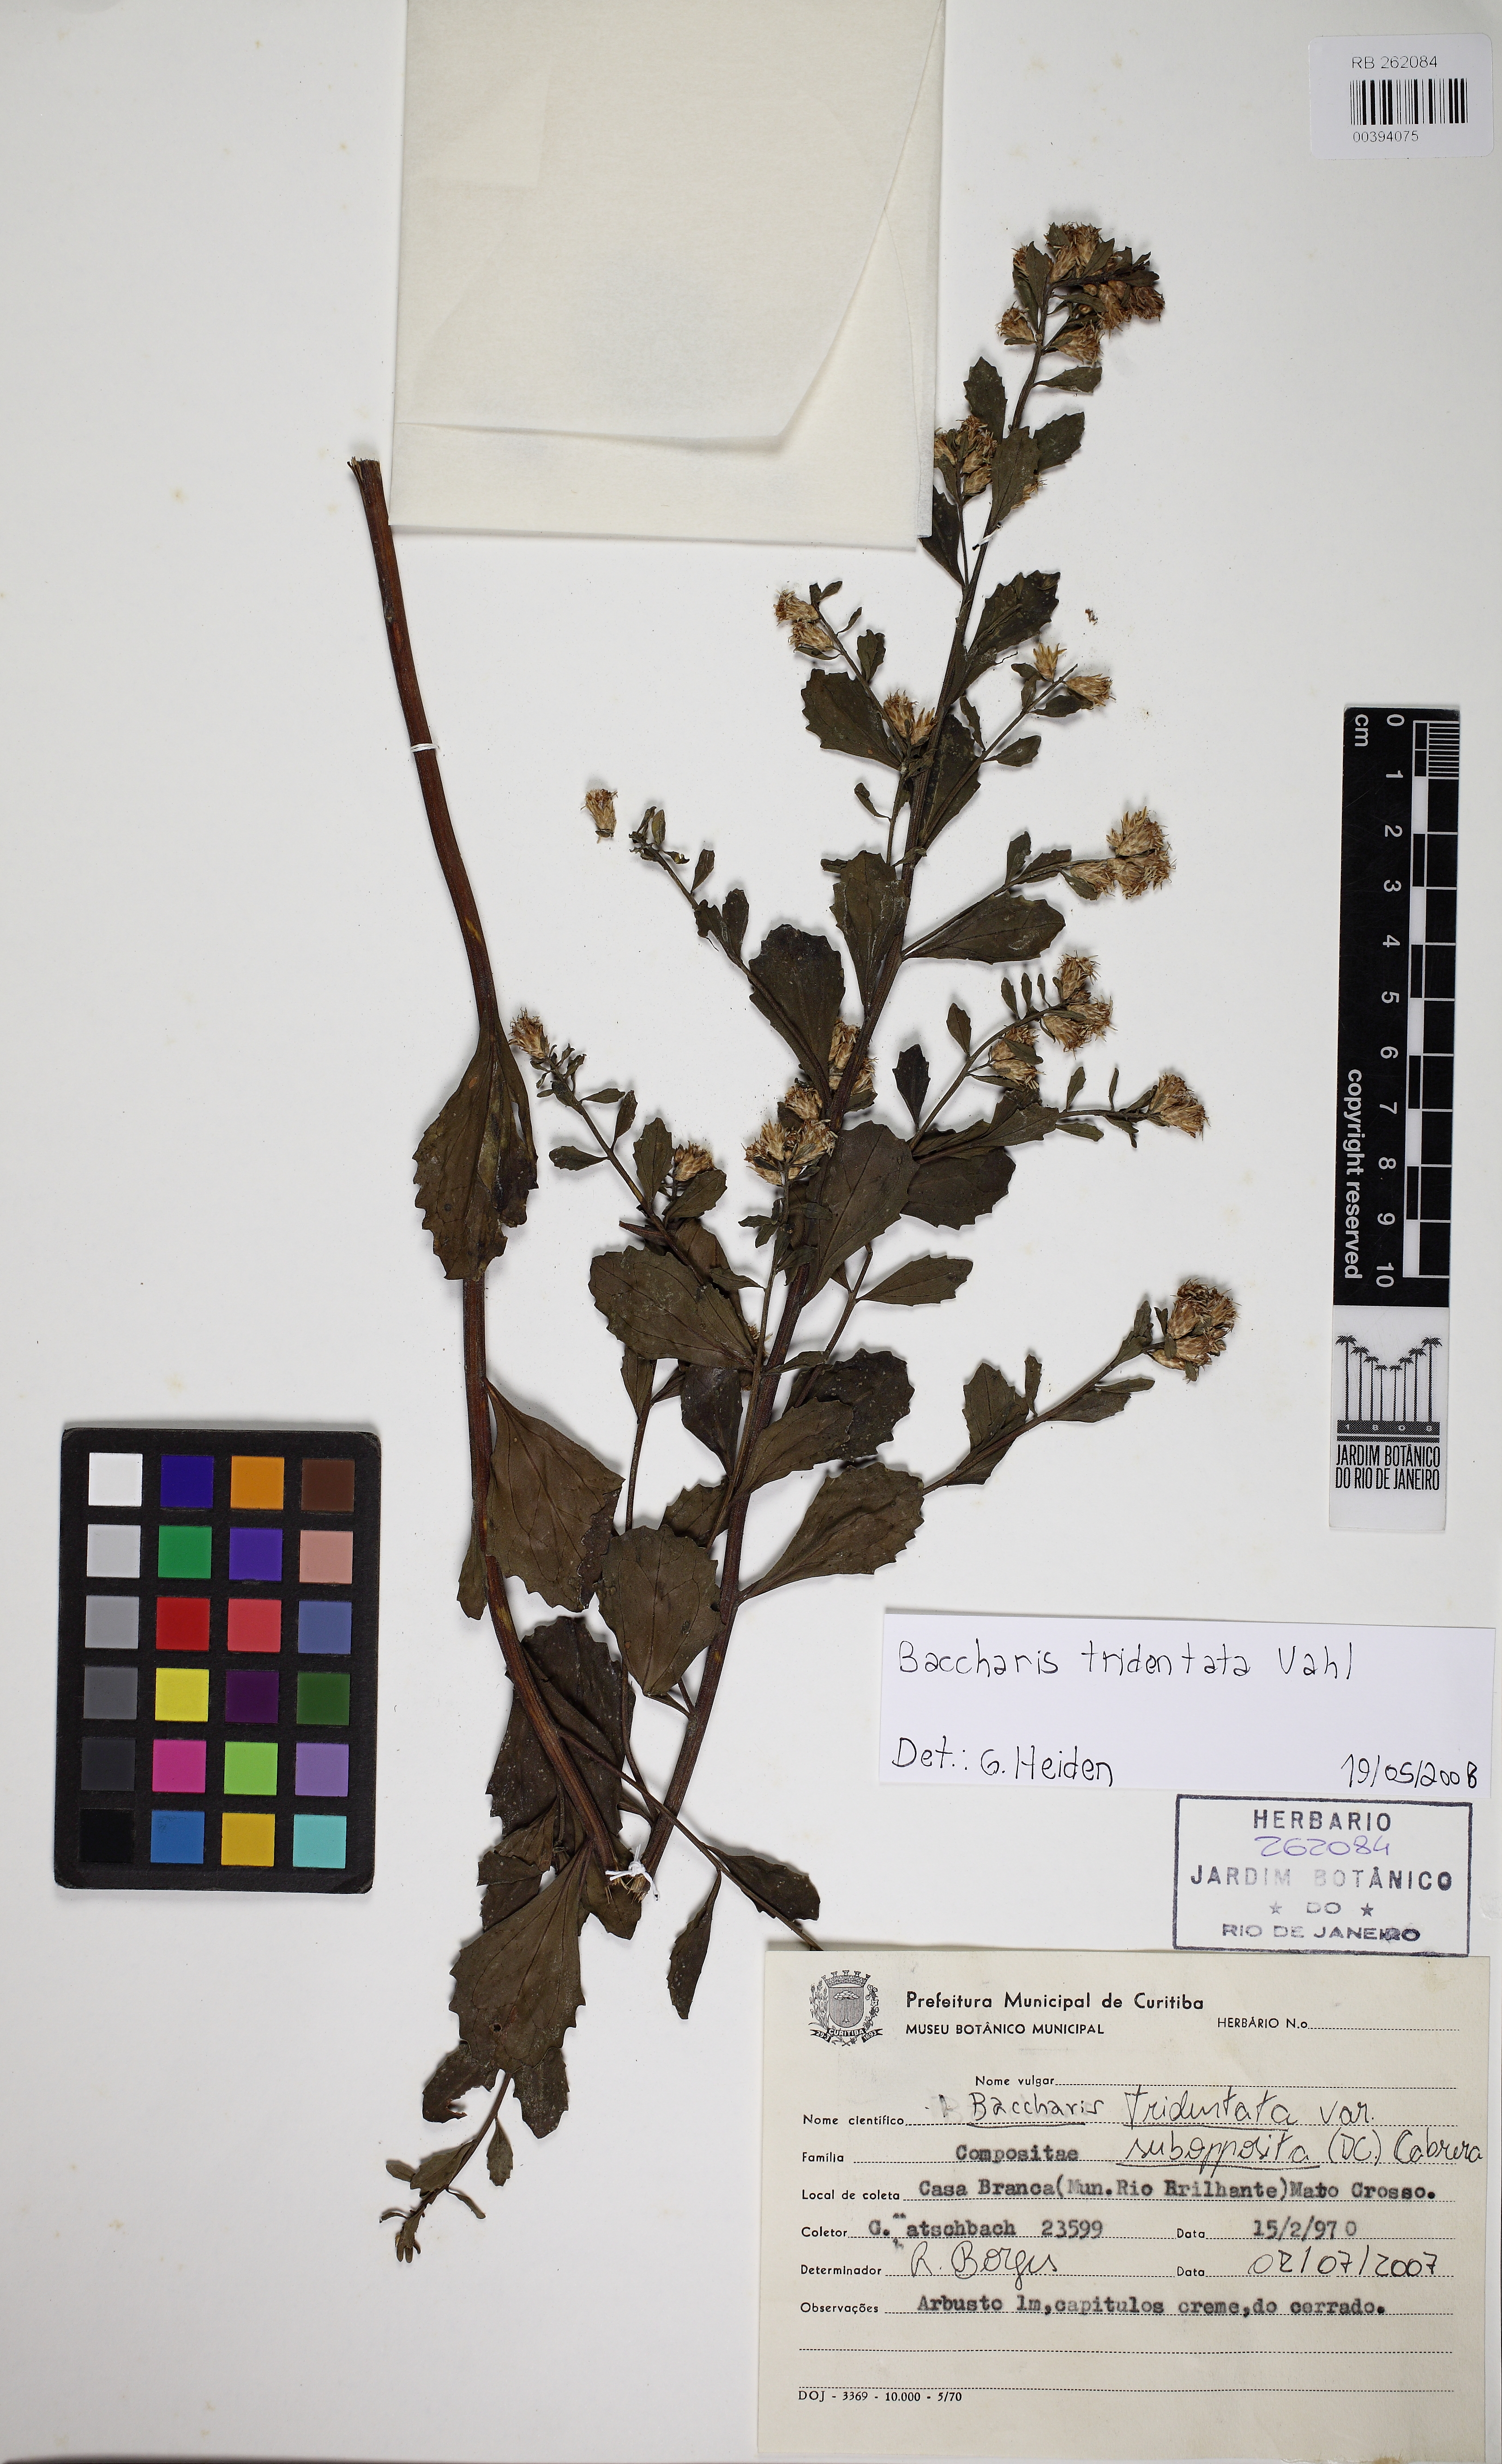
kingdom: Plantae
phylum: Tracheophyta
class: Magnoliopsida
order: Asterales
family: Asteraceae
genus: Baccharis
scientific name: Baccharis tridentata
